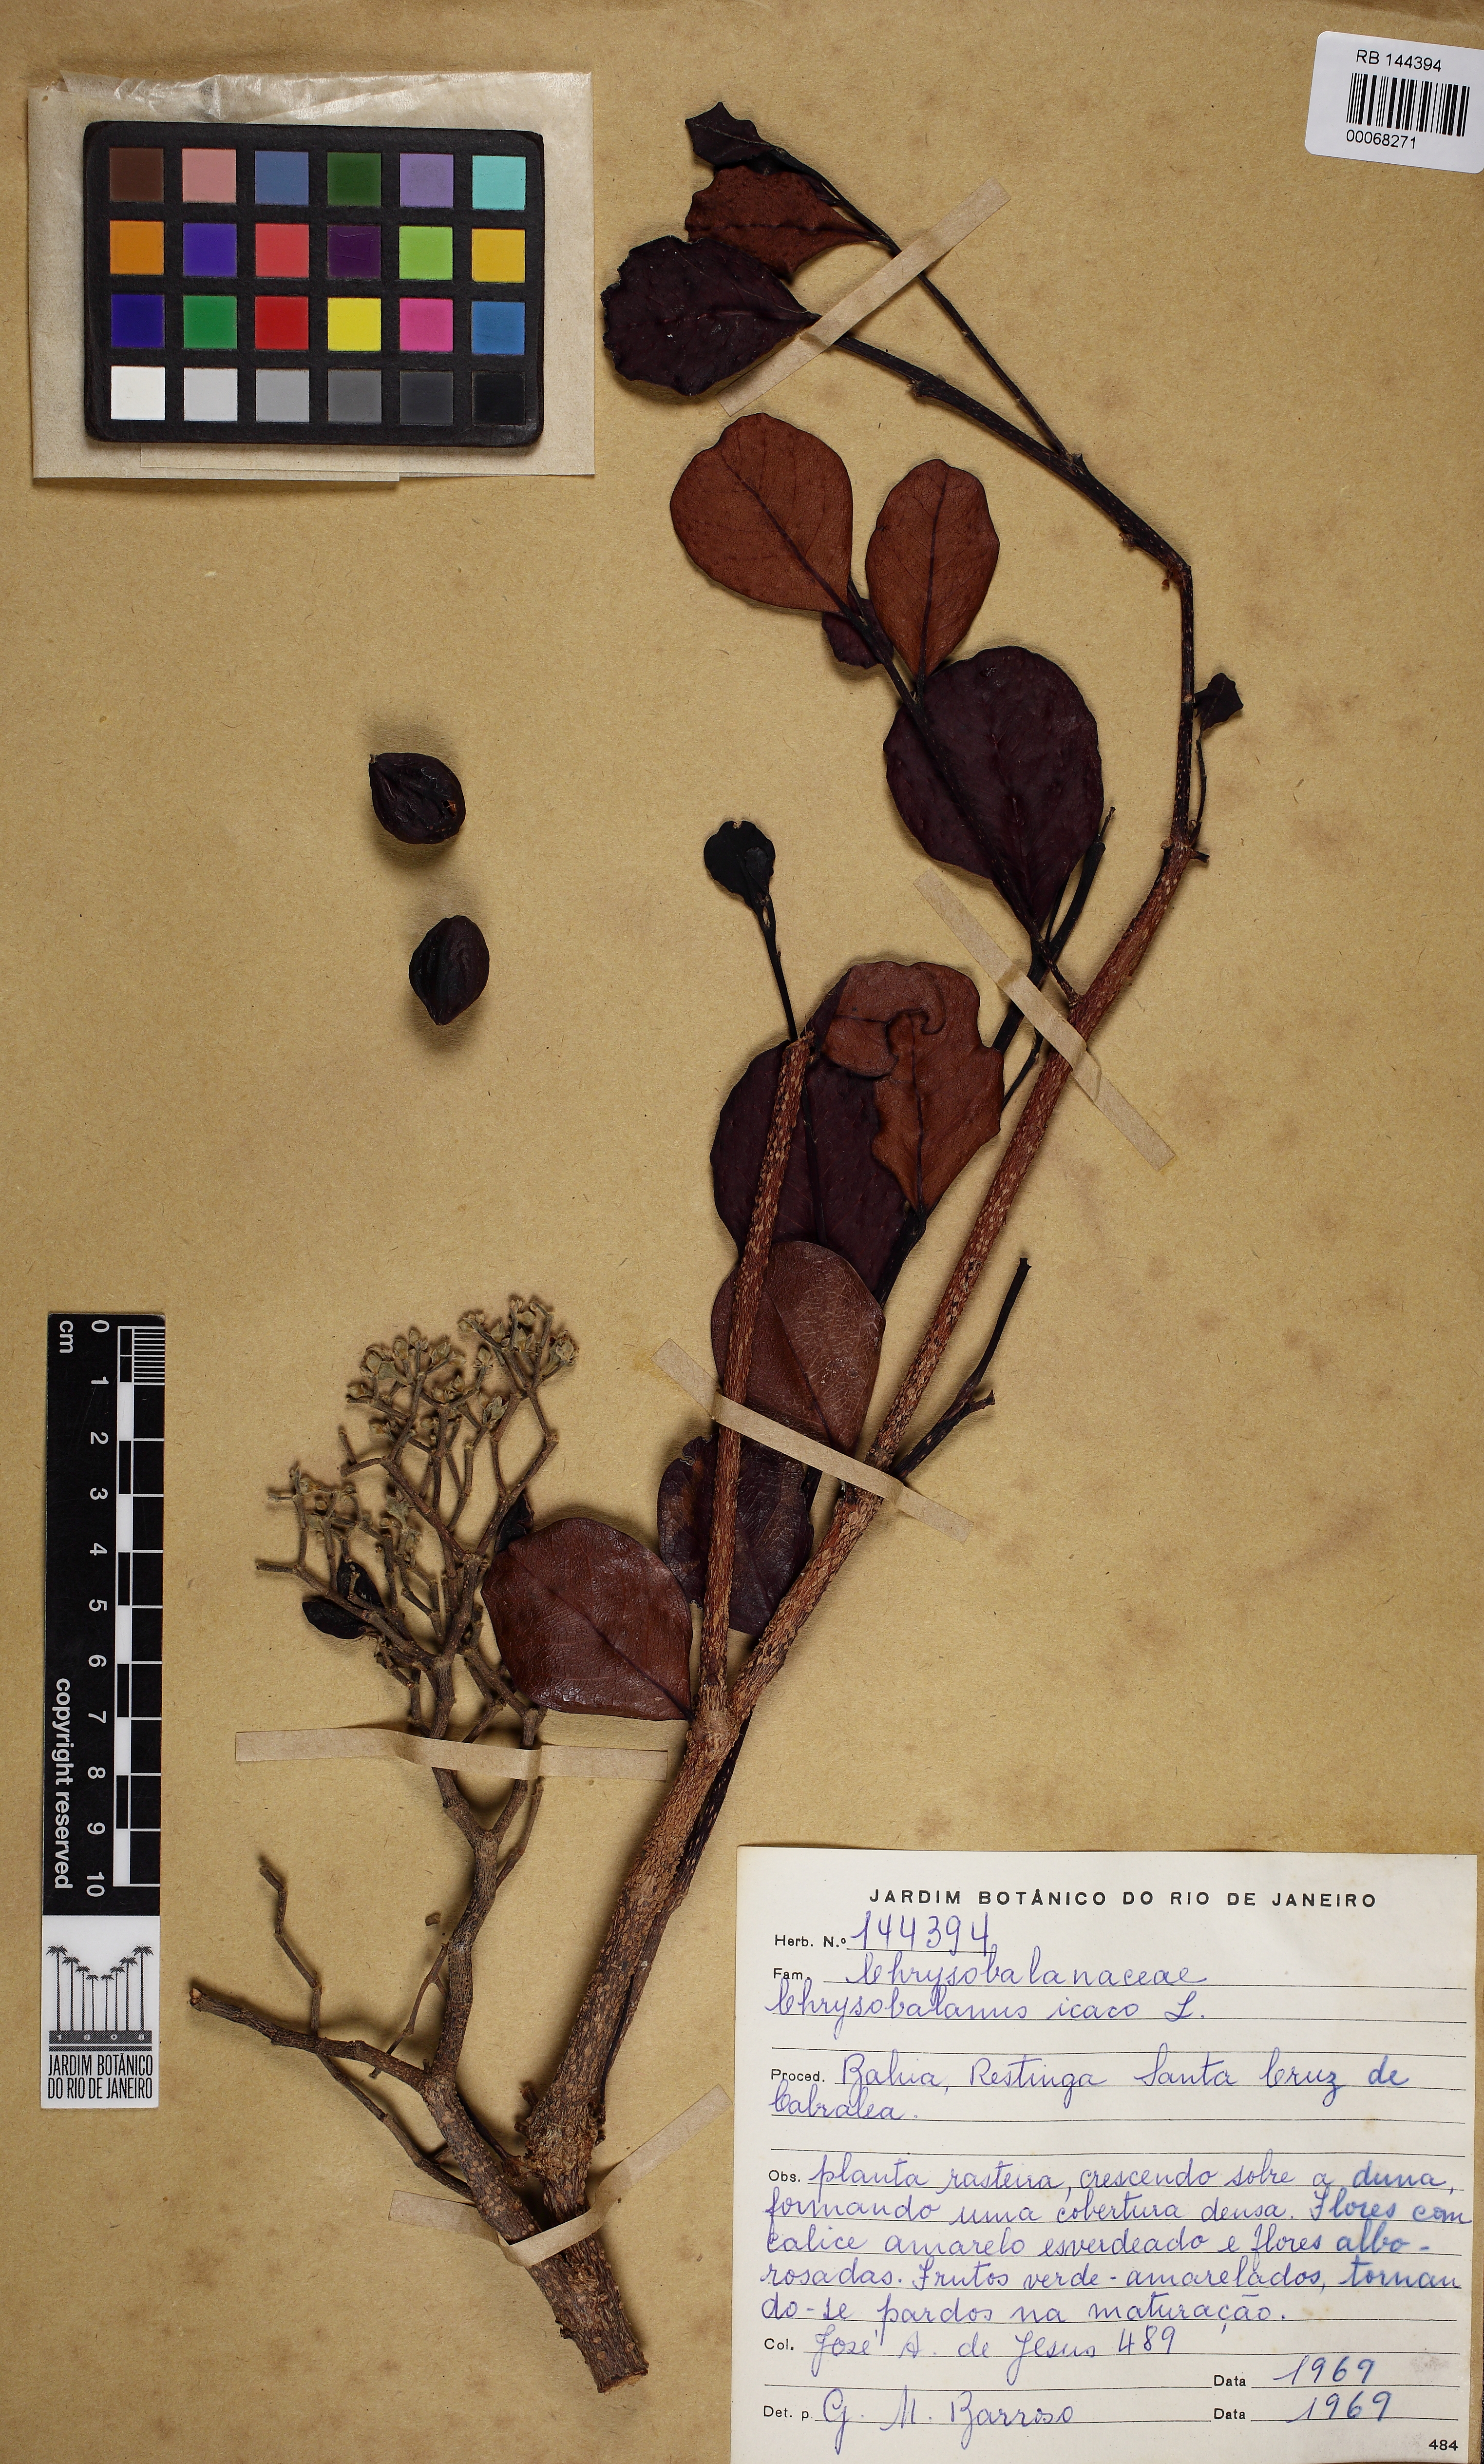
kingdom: Plantae
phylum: Tracheophyta
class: Magnoliopsida
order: Malpighiales
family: Chrysobalanaceae
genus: Chrysobalanus
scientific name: Chrysobalanus icaco
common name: Coco plum
